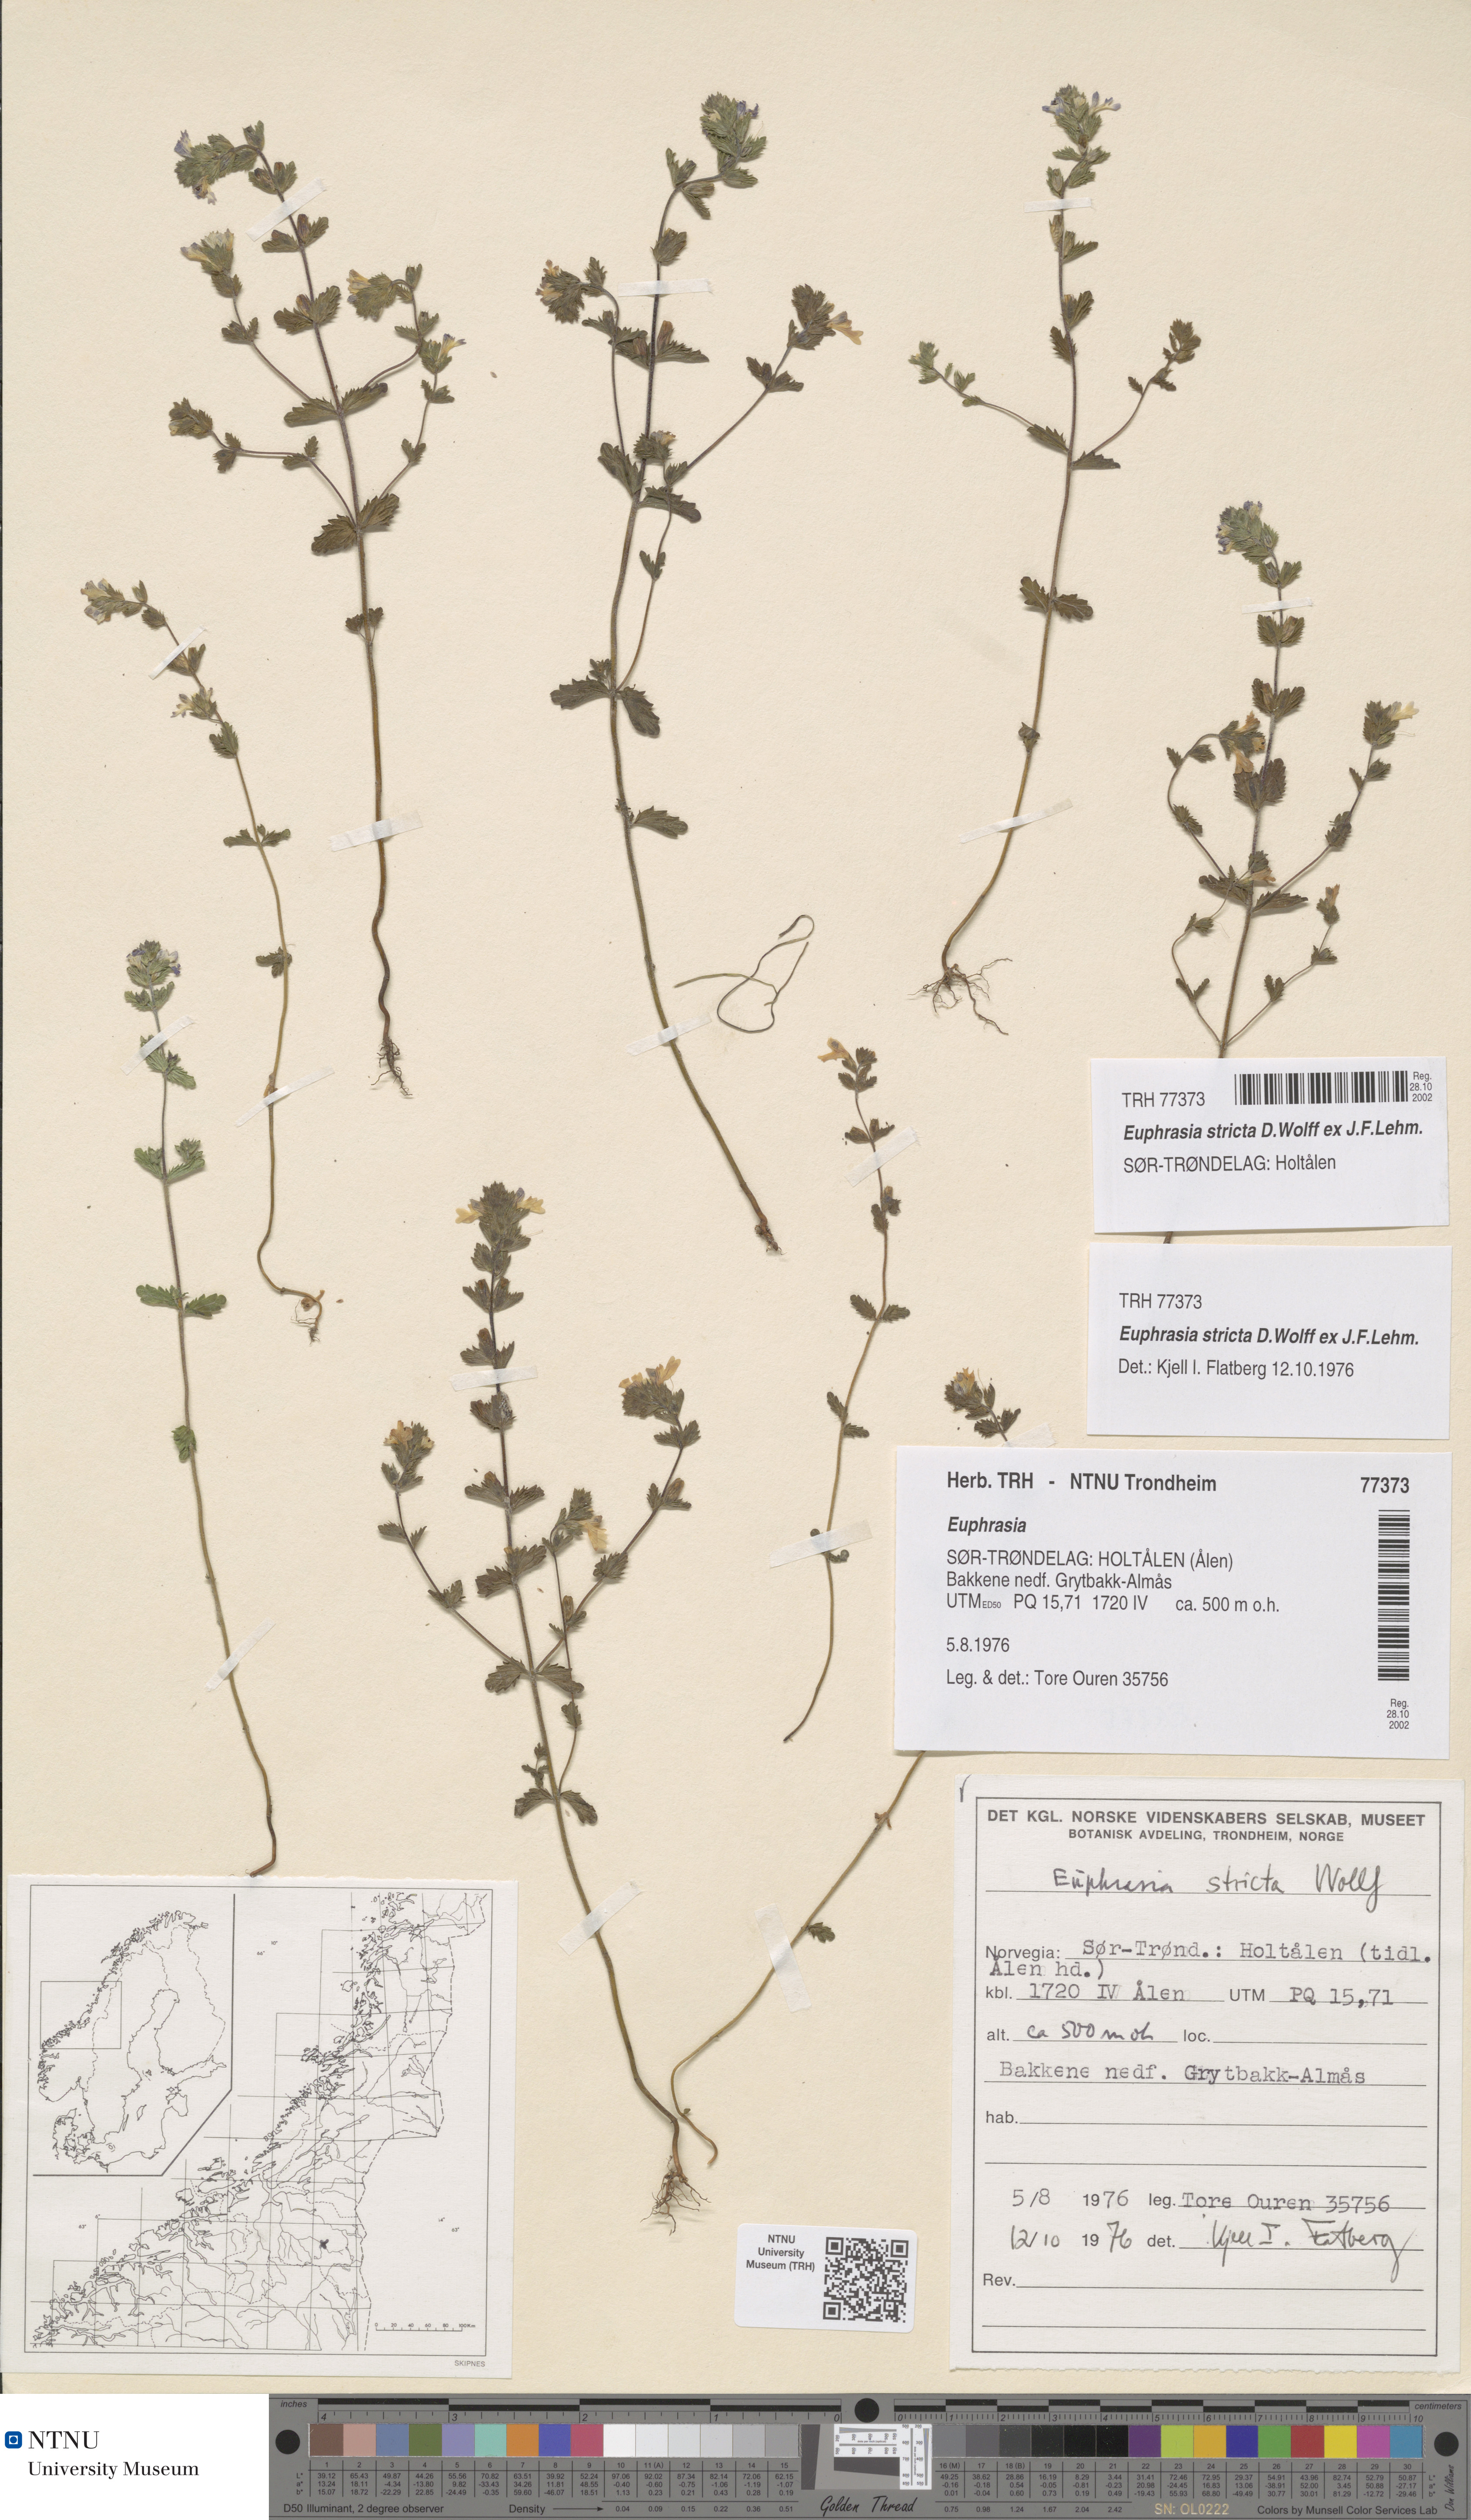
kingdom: Plantae
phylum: Tracheophyta
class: Magnoliopsida
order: Lamiales
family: Orobanchaceae
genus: Euphrasia
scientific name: Euphrasia stricta
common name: Drug eyebright
